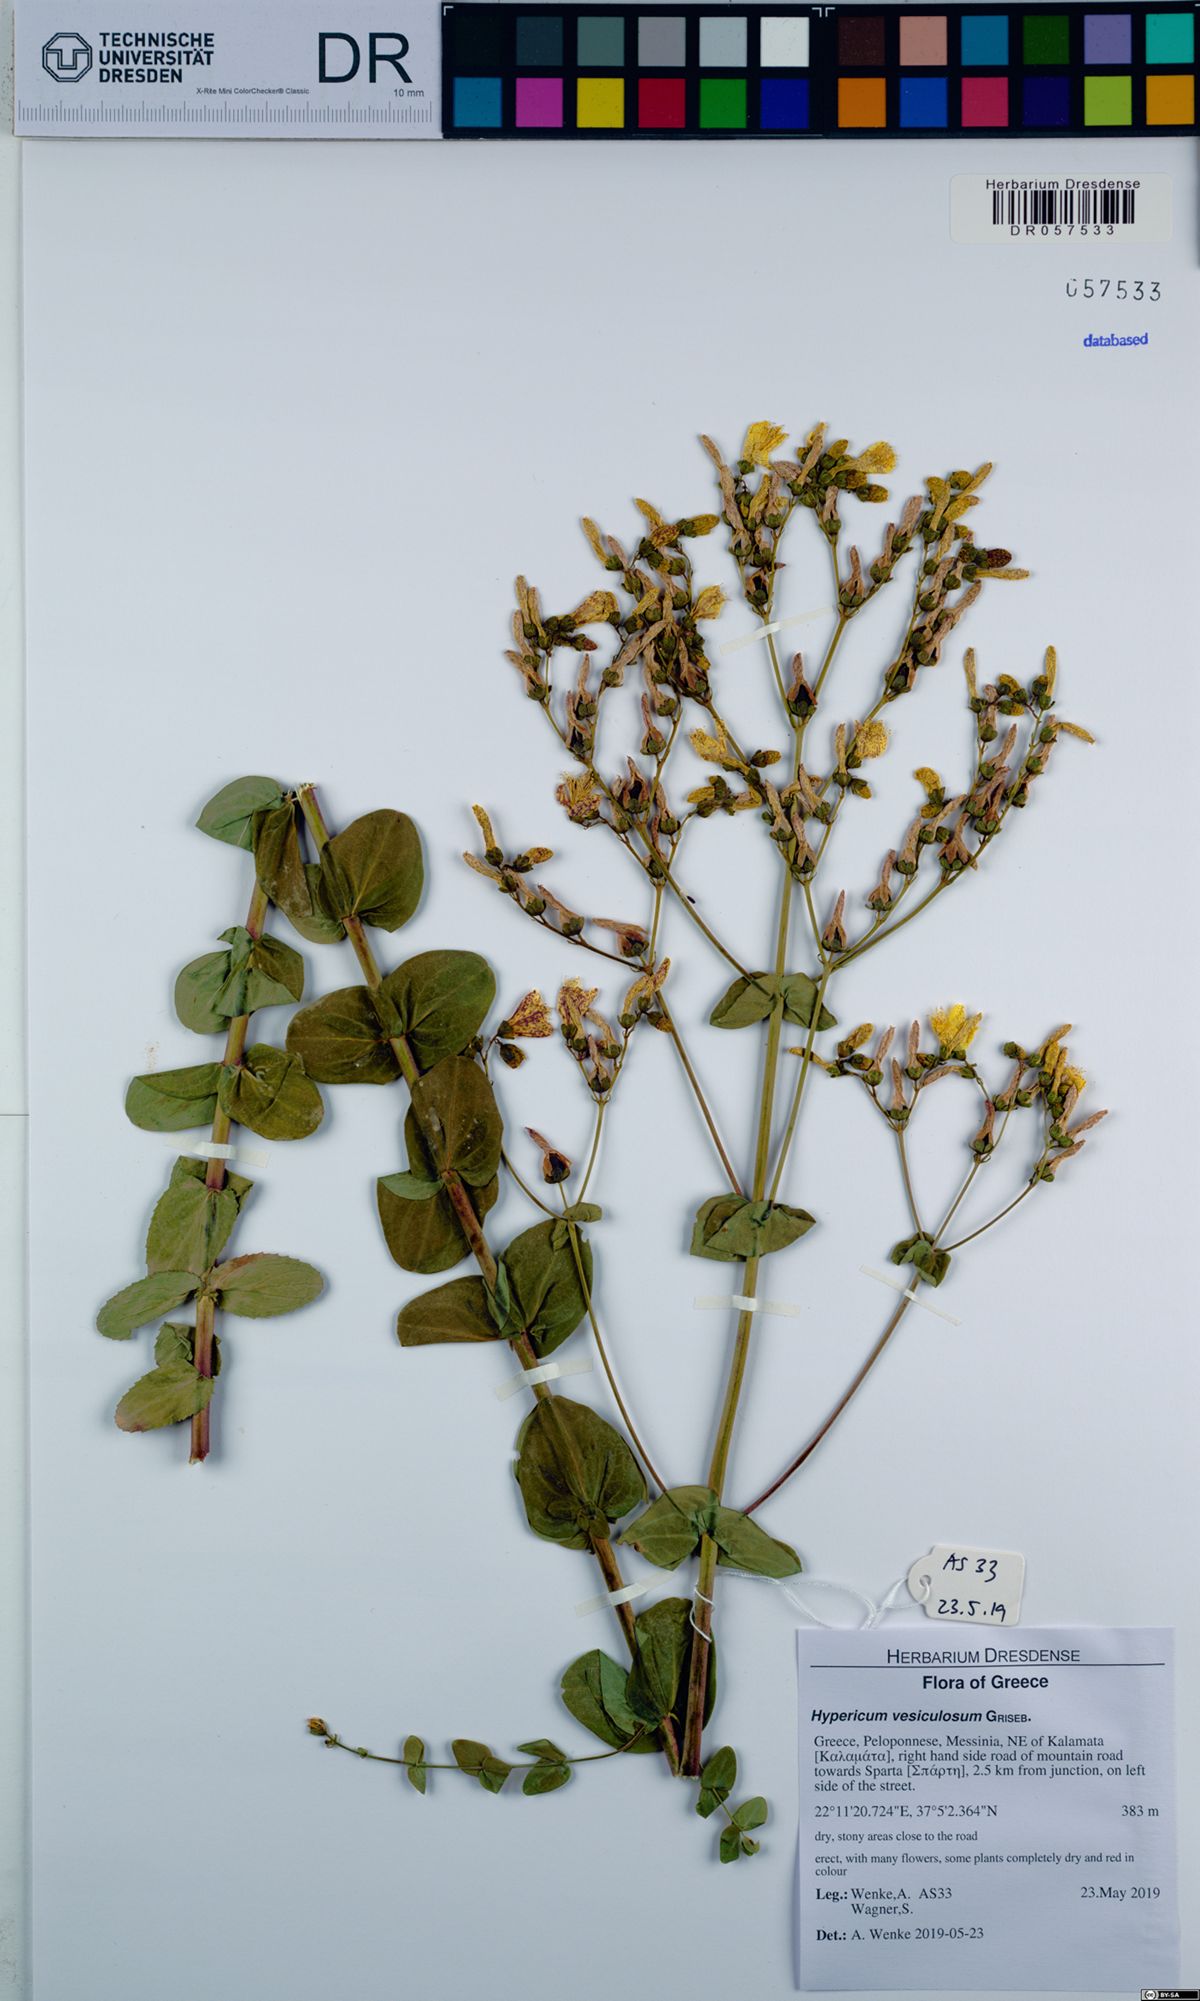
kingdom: Plantae
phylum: Tracheophyta
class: Magnoliopsida
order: Malpighiales
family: Hypericaceae
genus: Hypericum
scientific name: Hypericum vesiculosum
